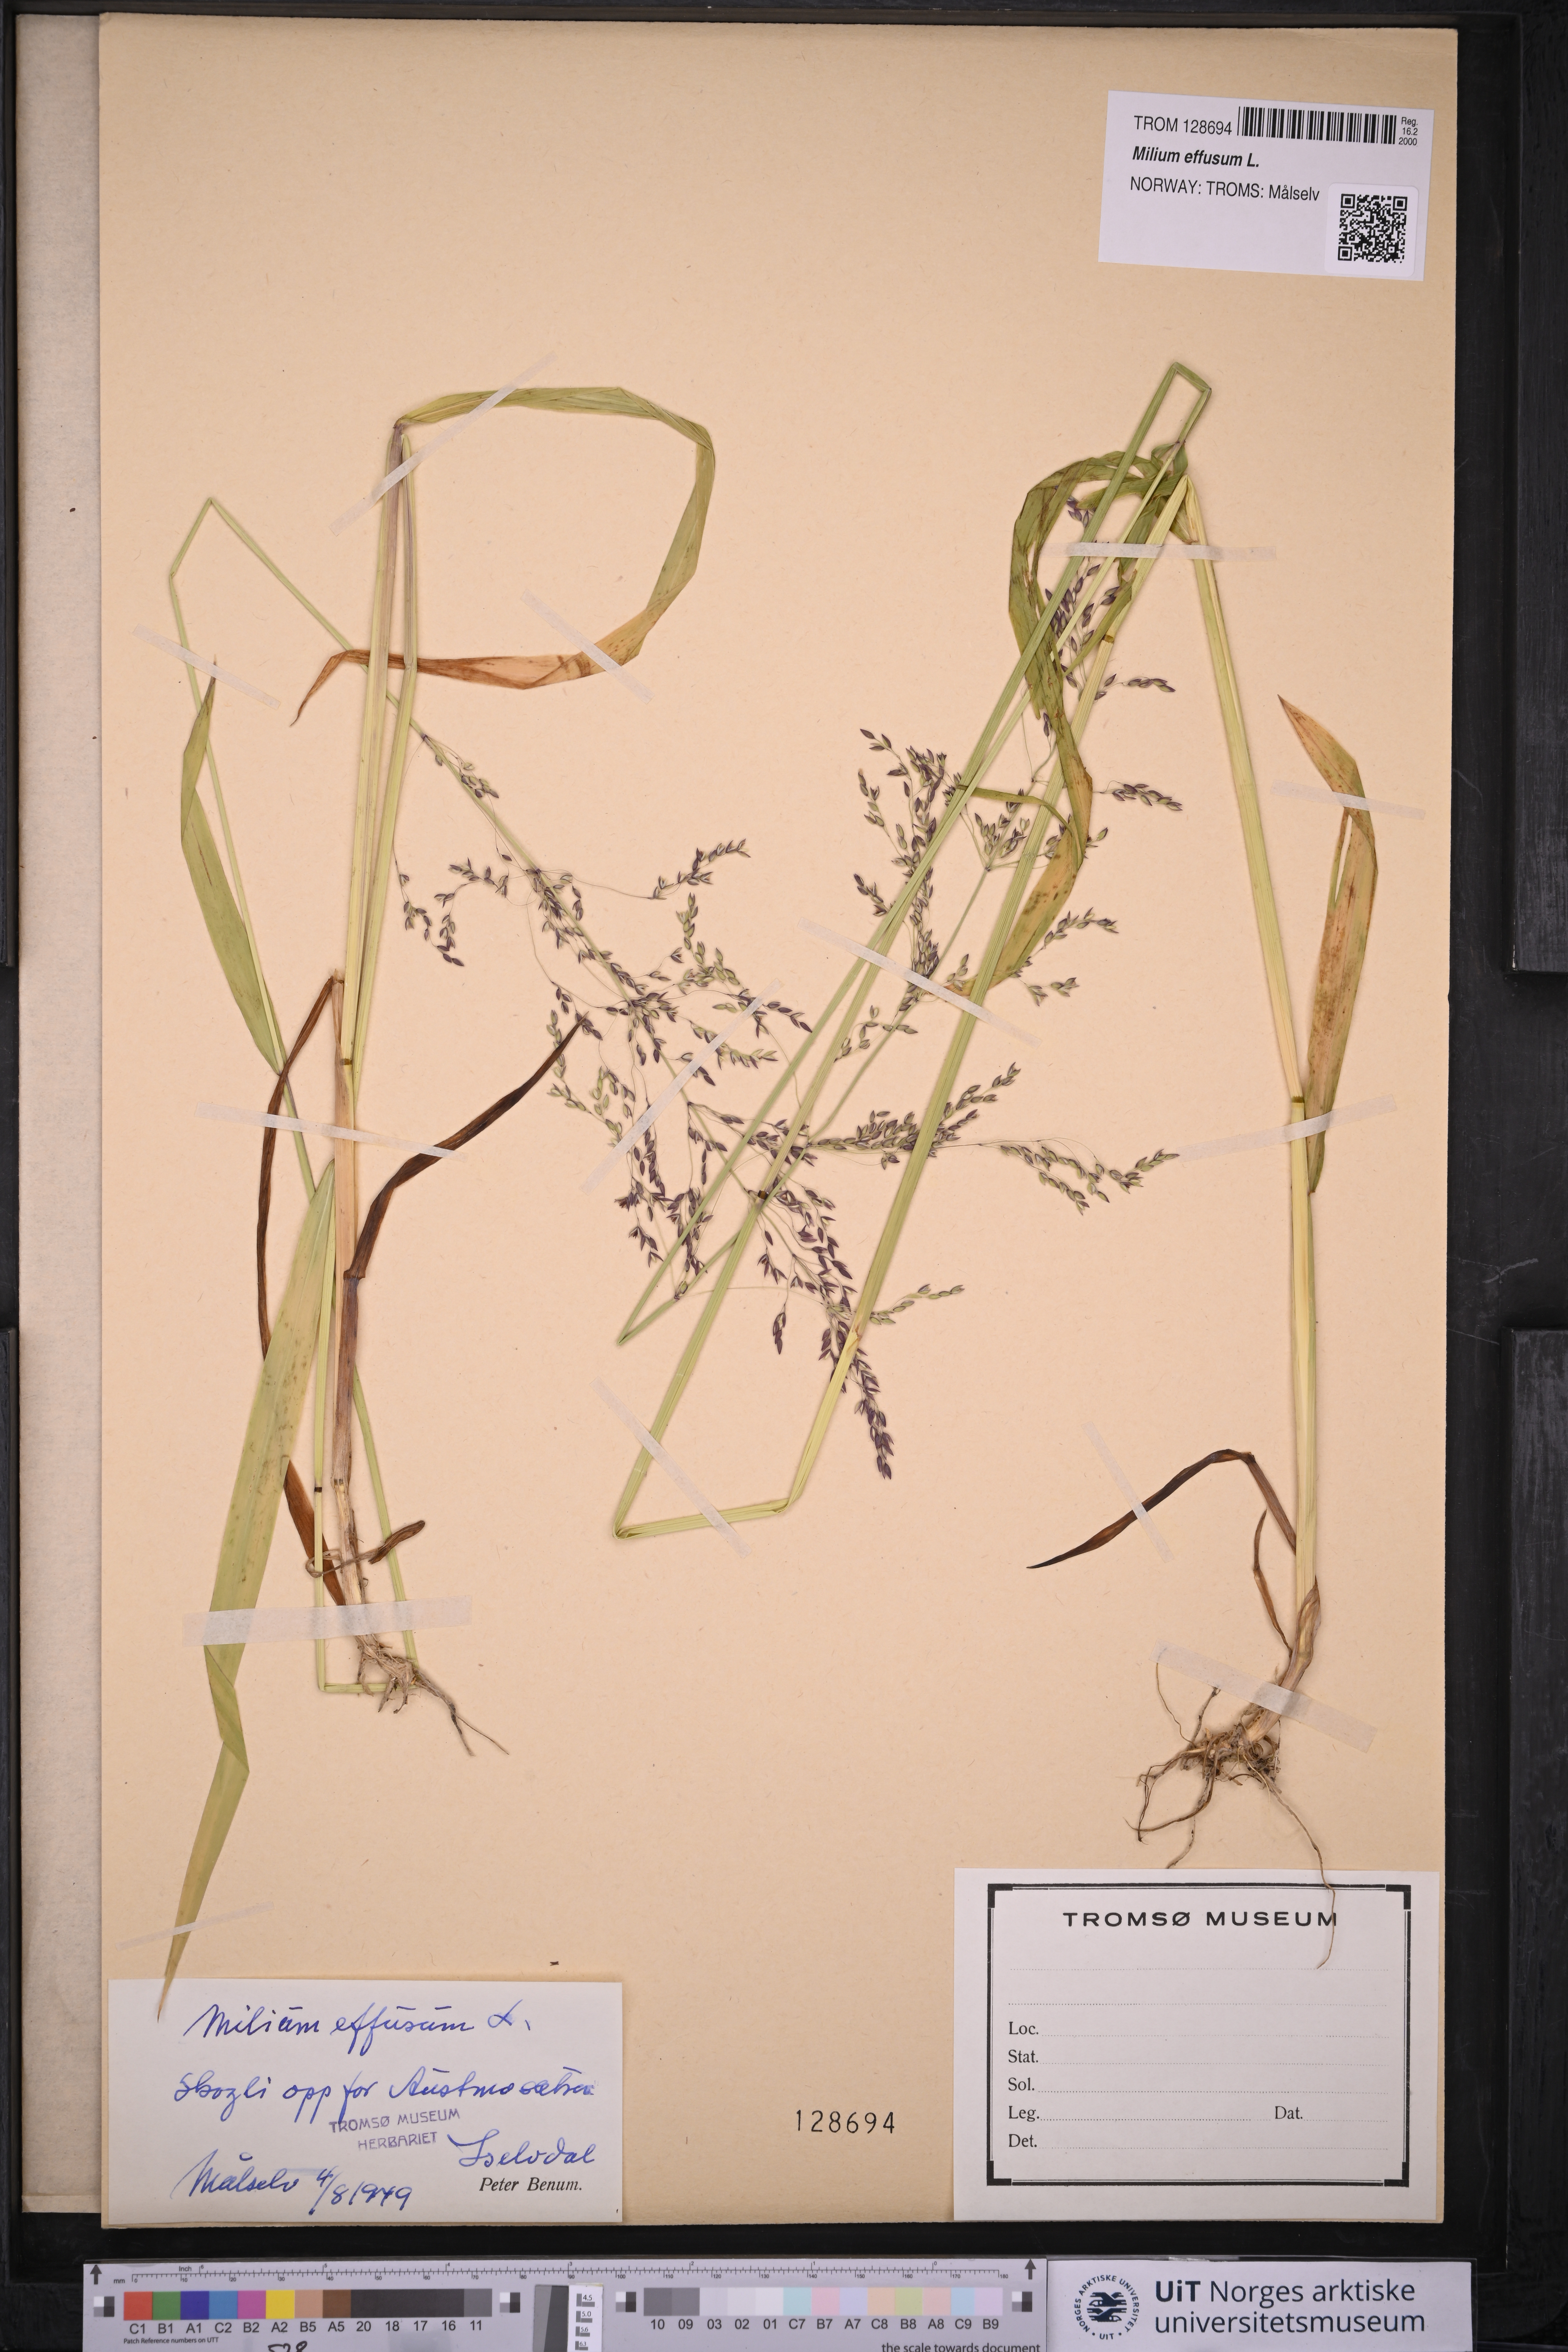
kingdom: Plantae
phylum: Tracheophyta
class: Liliopsida
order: Poales
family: Poaceae
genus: Milium
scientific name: Milium effusum
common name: Wood millet
